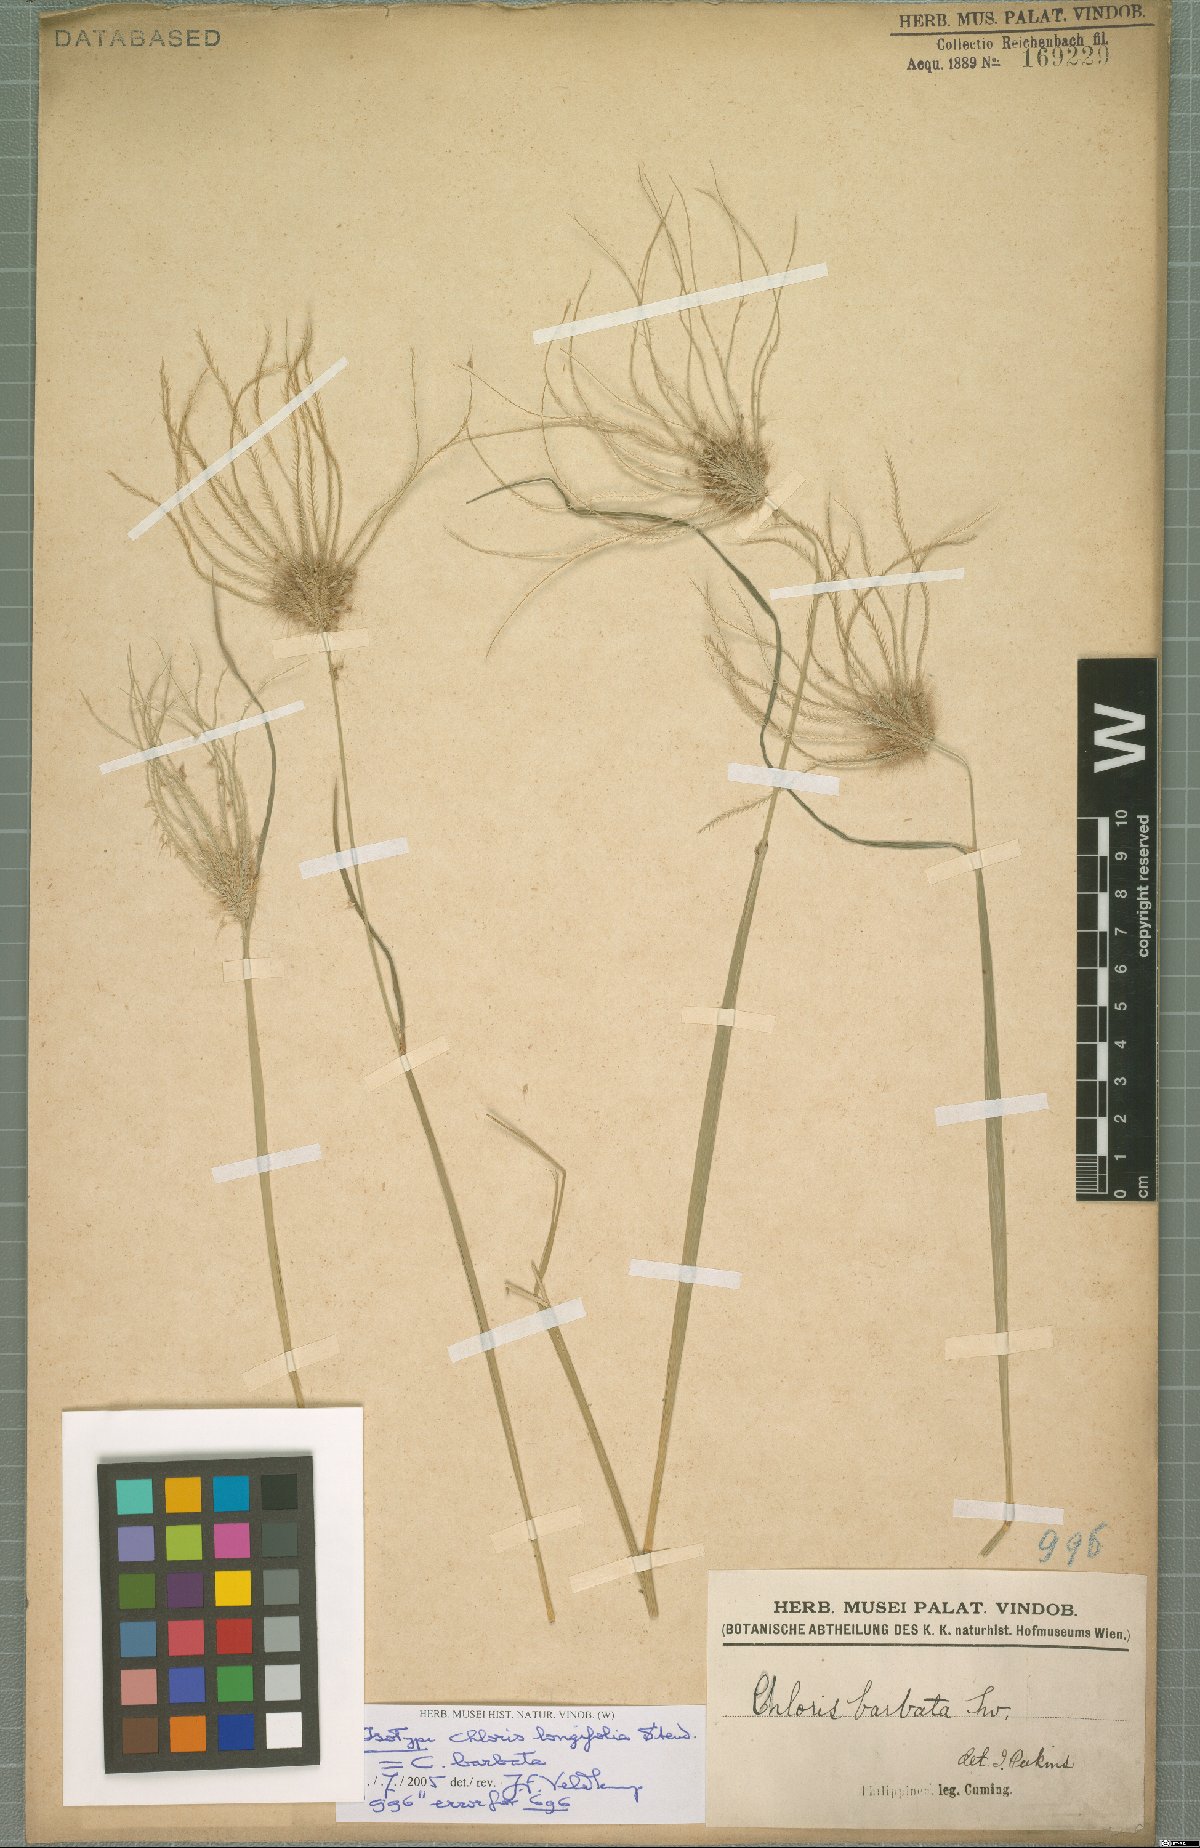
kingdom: Plantae
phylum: Tracheophyta
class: Liliopsida
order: Poales
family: Poaceae
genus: Chloris
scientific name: Chloris barbata
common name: Swollen fingergrass
